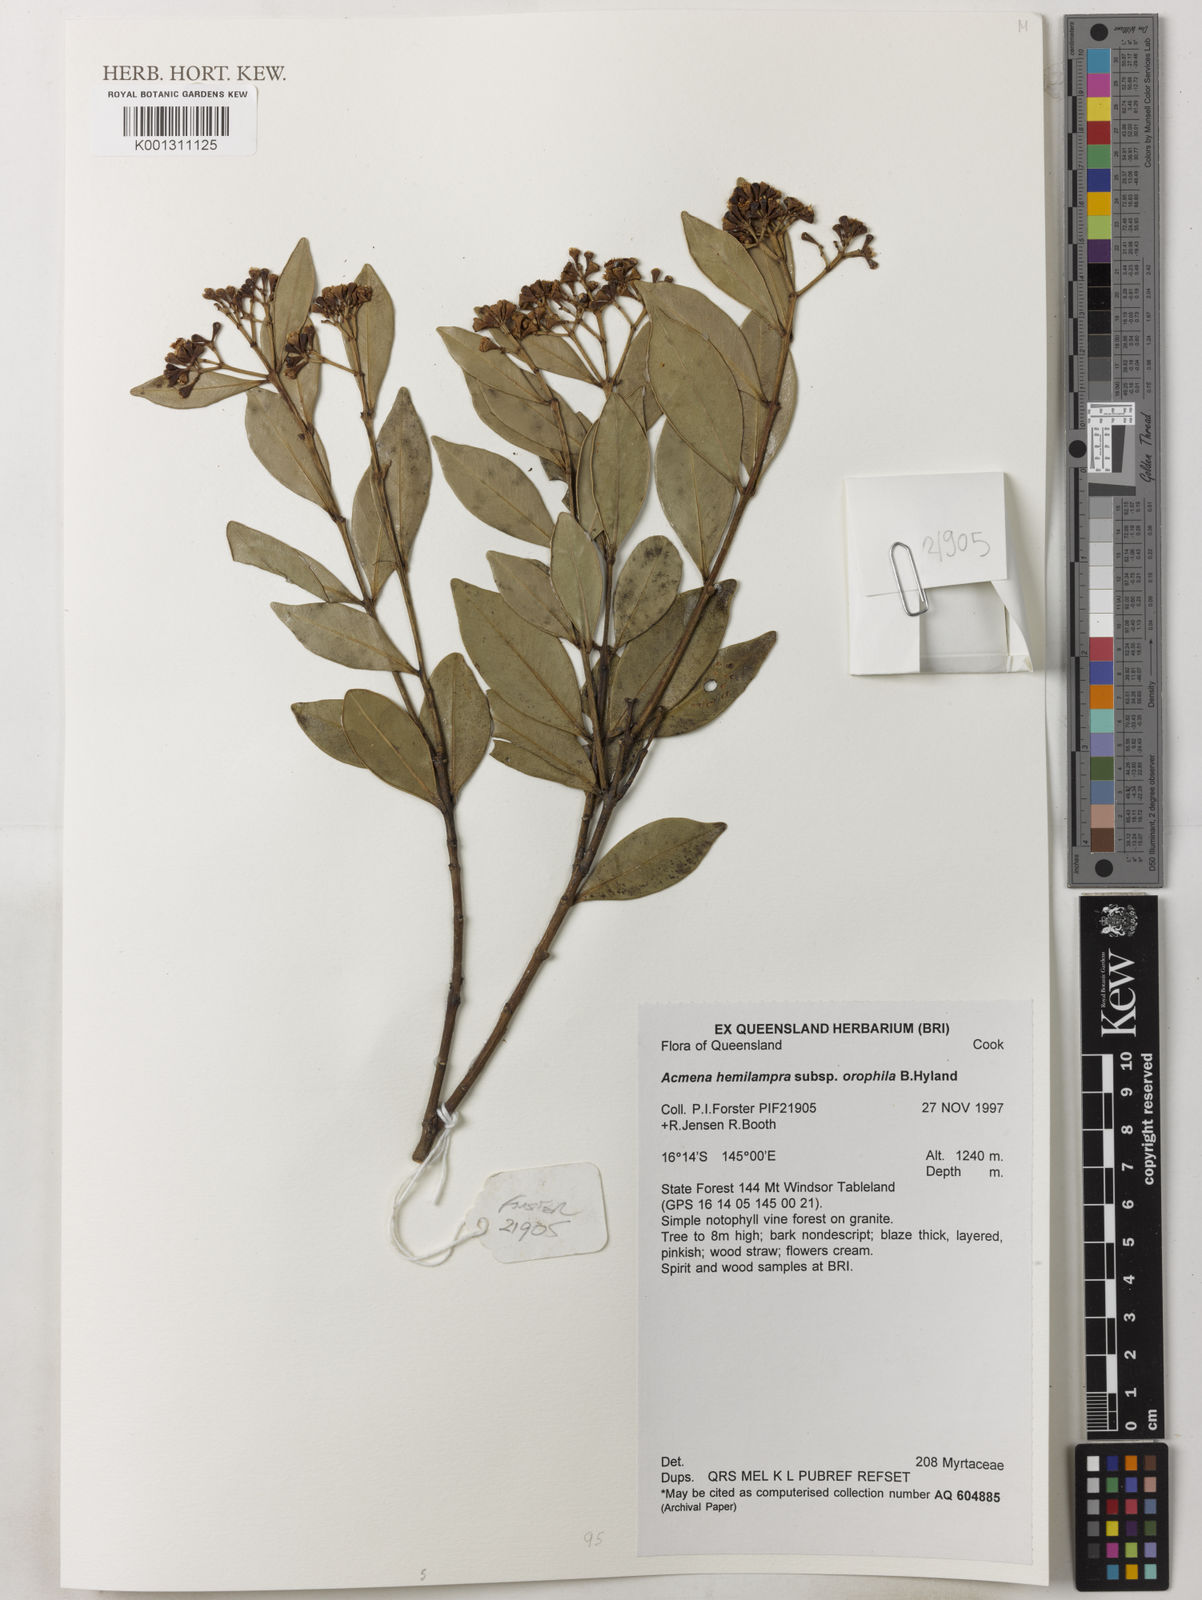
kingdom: Plantae
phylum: Tracheophyta
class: Magnoliopsida
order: Myrtales
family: Myrtaceae
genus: Syzygium
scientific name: Syzygium mackinnonianum
